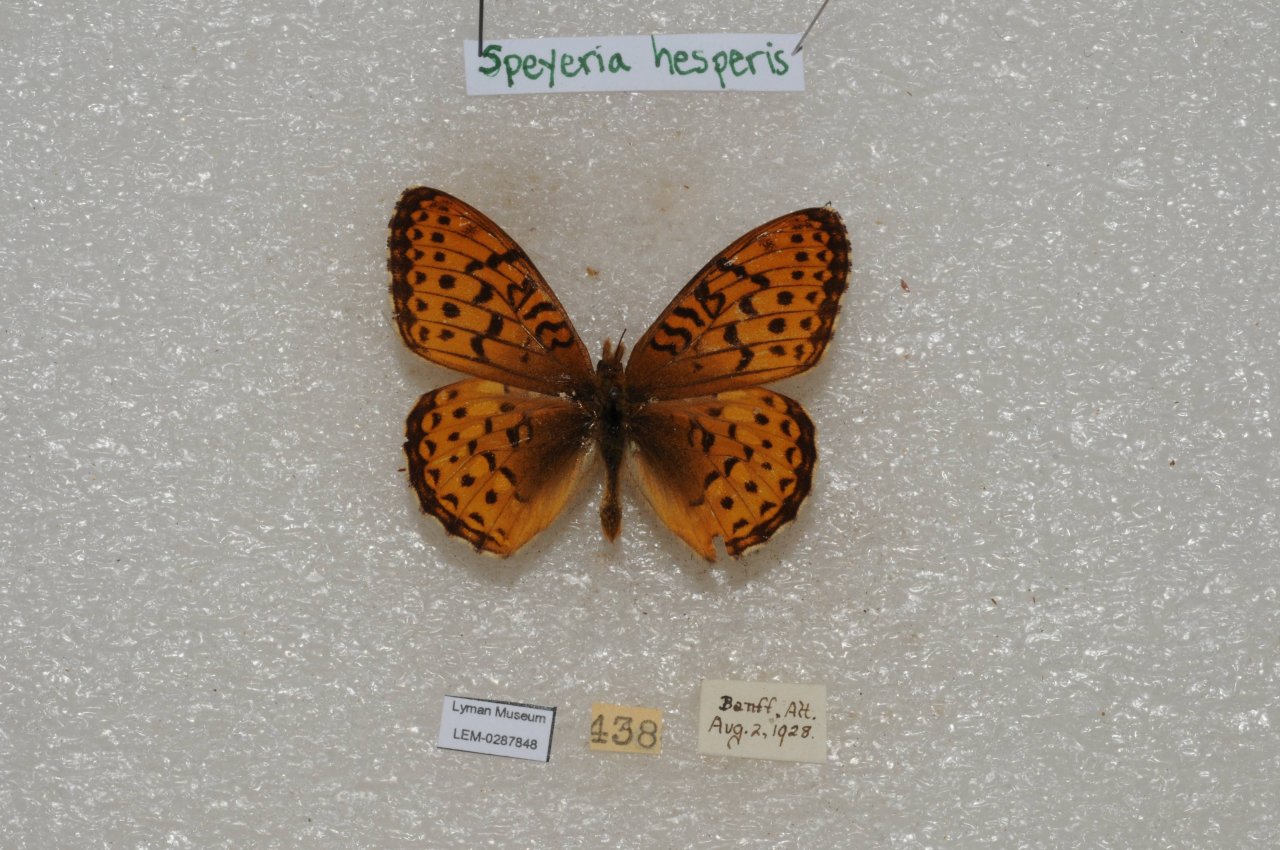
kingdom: Animalia
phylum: Arthropoda
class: Insecta
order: Lepidoptera
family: Nymphalidae
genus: Speyeria
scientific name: Speyeria atlantis
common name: Northwestern Fritillary
